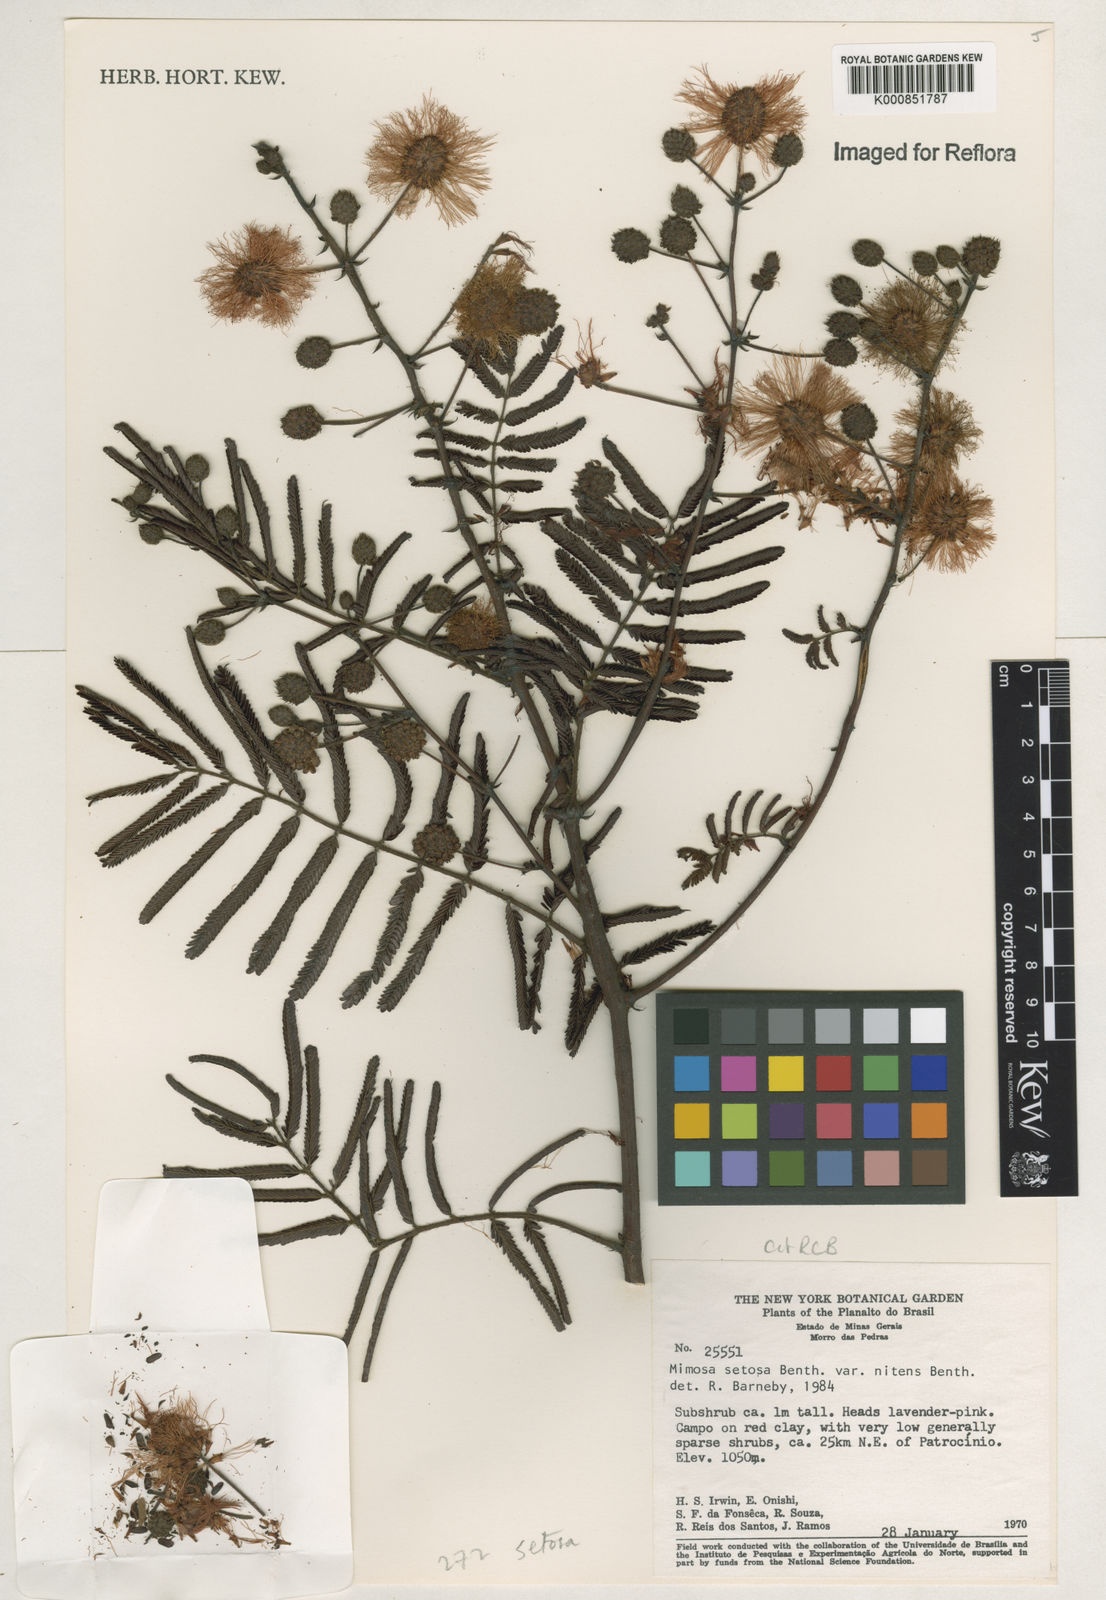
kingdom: Plantae
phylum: Tracheophyta
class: Magnoliopsida
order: Fabales
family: Fabaceae
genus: Mimosa
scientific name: Mimosa neonitens
